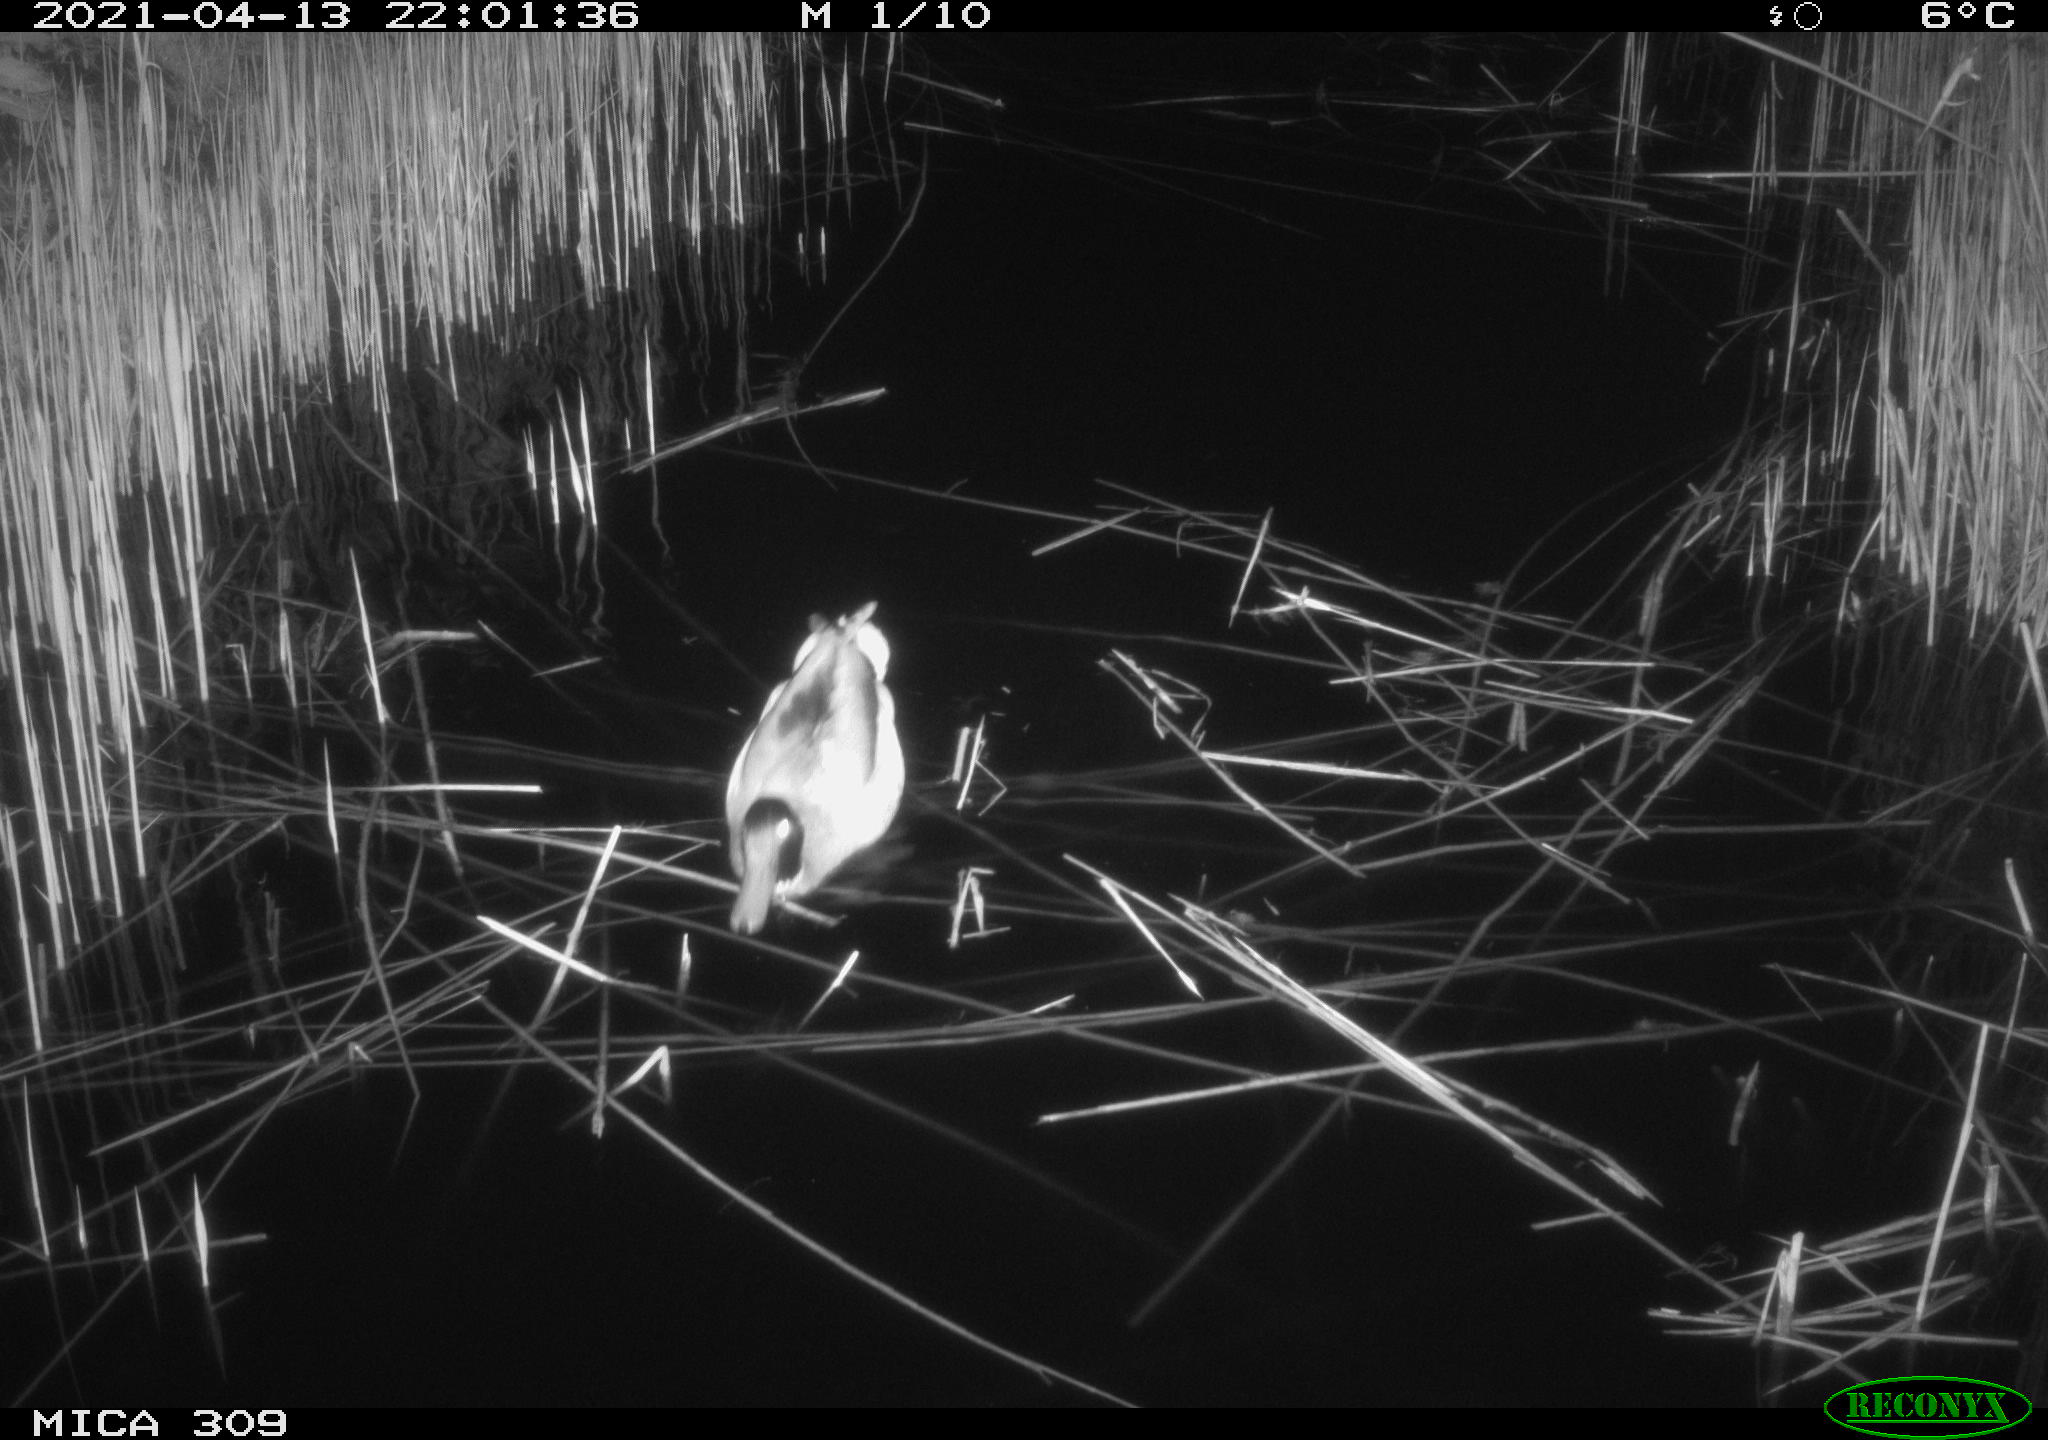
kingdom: Animalia
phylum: Chordata
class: Aves
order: Anseriformes
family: Anatidae
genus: Anas
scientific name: Anas platyrhynchos
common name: Mallard
